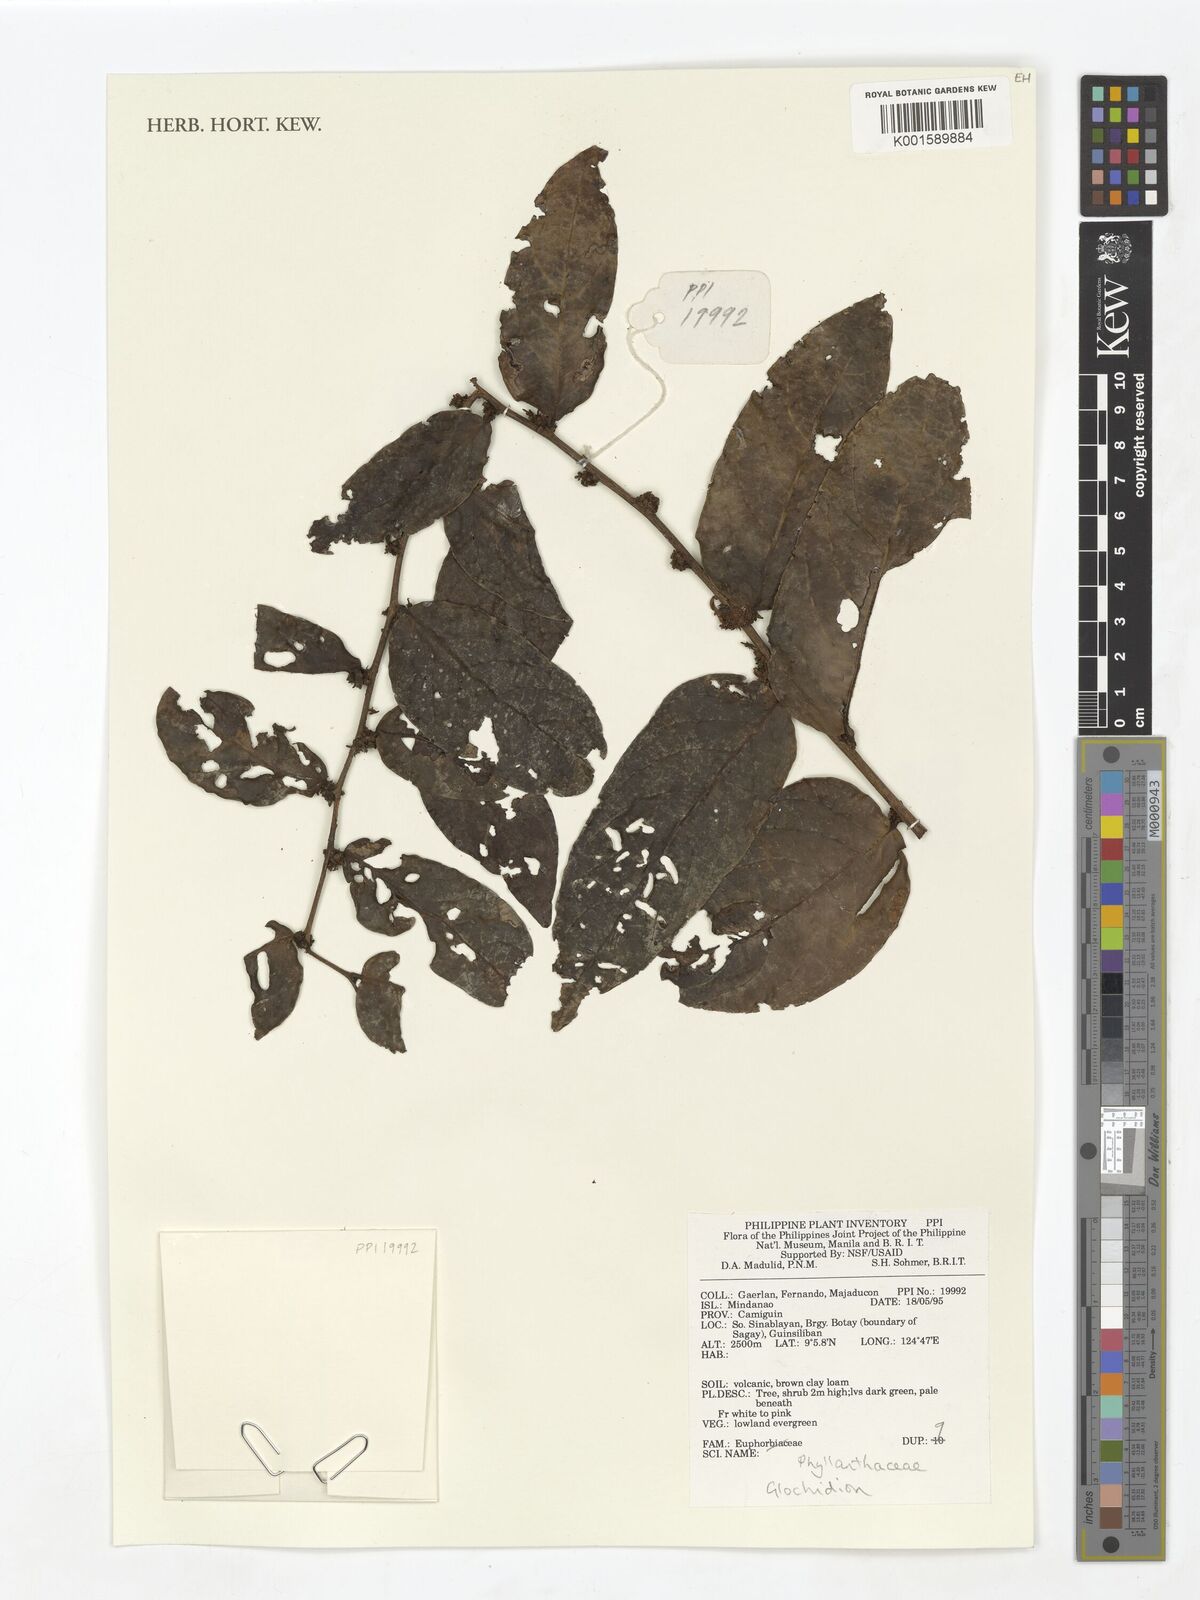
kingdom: Plantae
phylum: Tracheophyta
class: Magnoliopsida
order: Malpighiales
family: Phyllanthaceae
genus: Glochidion
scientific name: Glochidion
